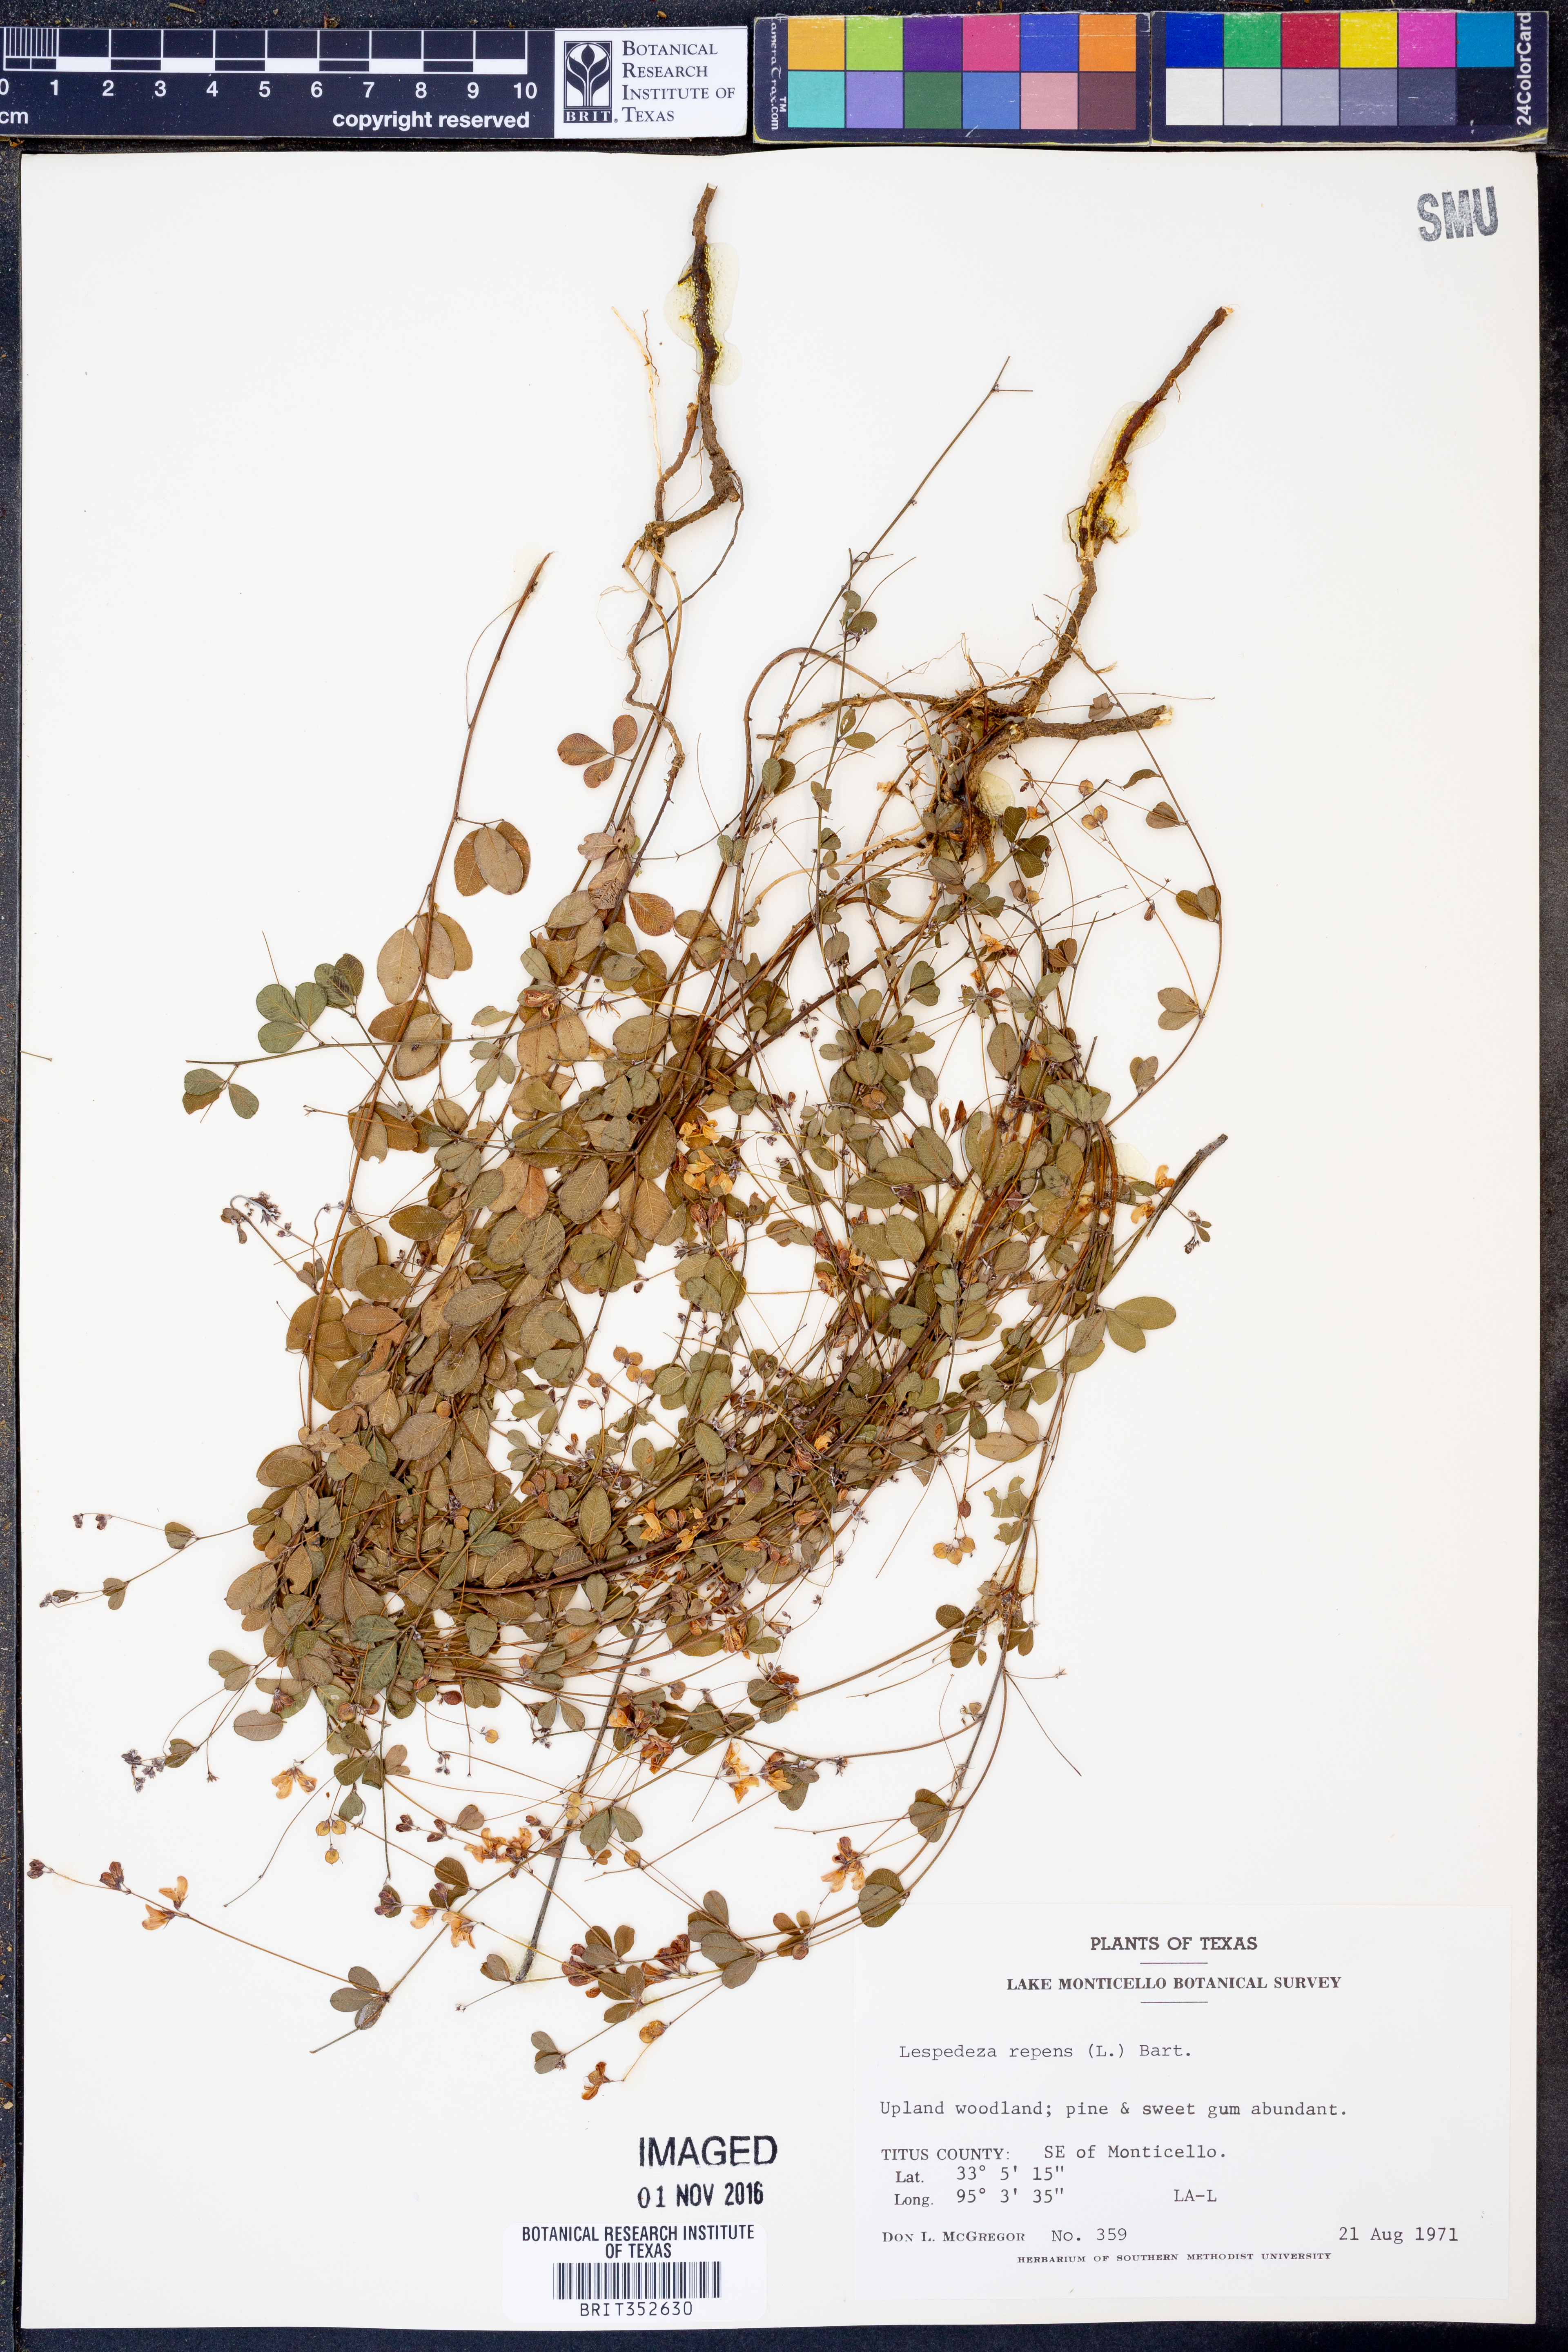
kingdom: Plantae
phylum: Tracheophyta
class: Magnoliopsida
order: Fabales
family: Fabaceae
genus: Lespedeza
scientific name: Lespedeza repens
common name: Creeping bush-clover
